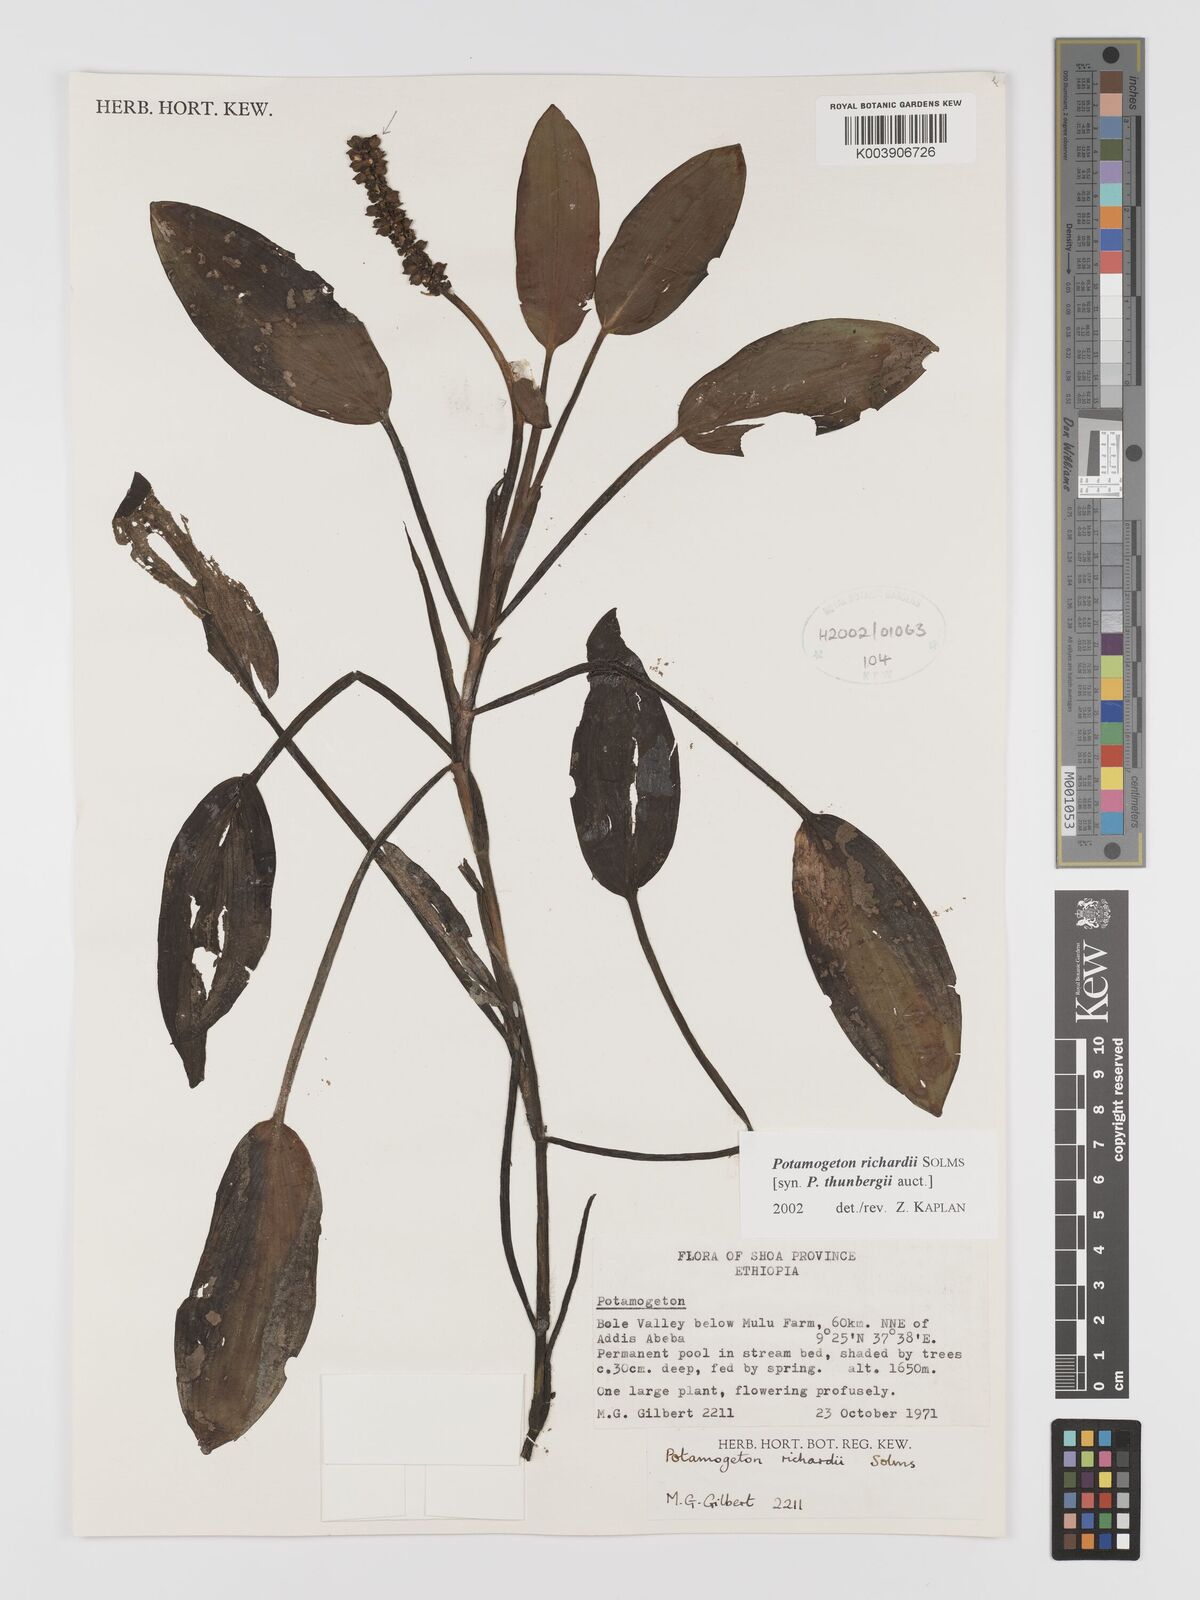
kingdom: Plantae
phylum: Tracheophyta
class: Liliopsida
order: Alismatales
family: Potamogetonaceae
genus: Potamogeton
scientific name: Potamogeton richardii
